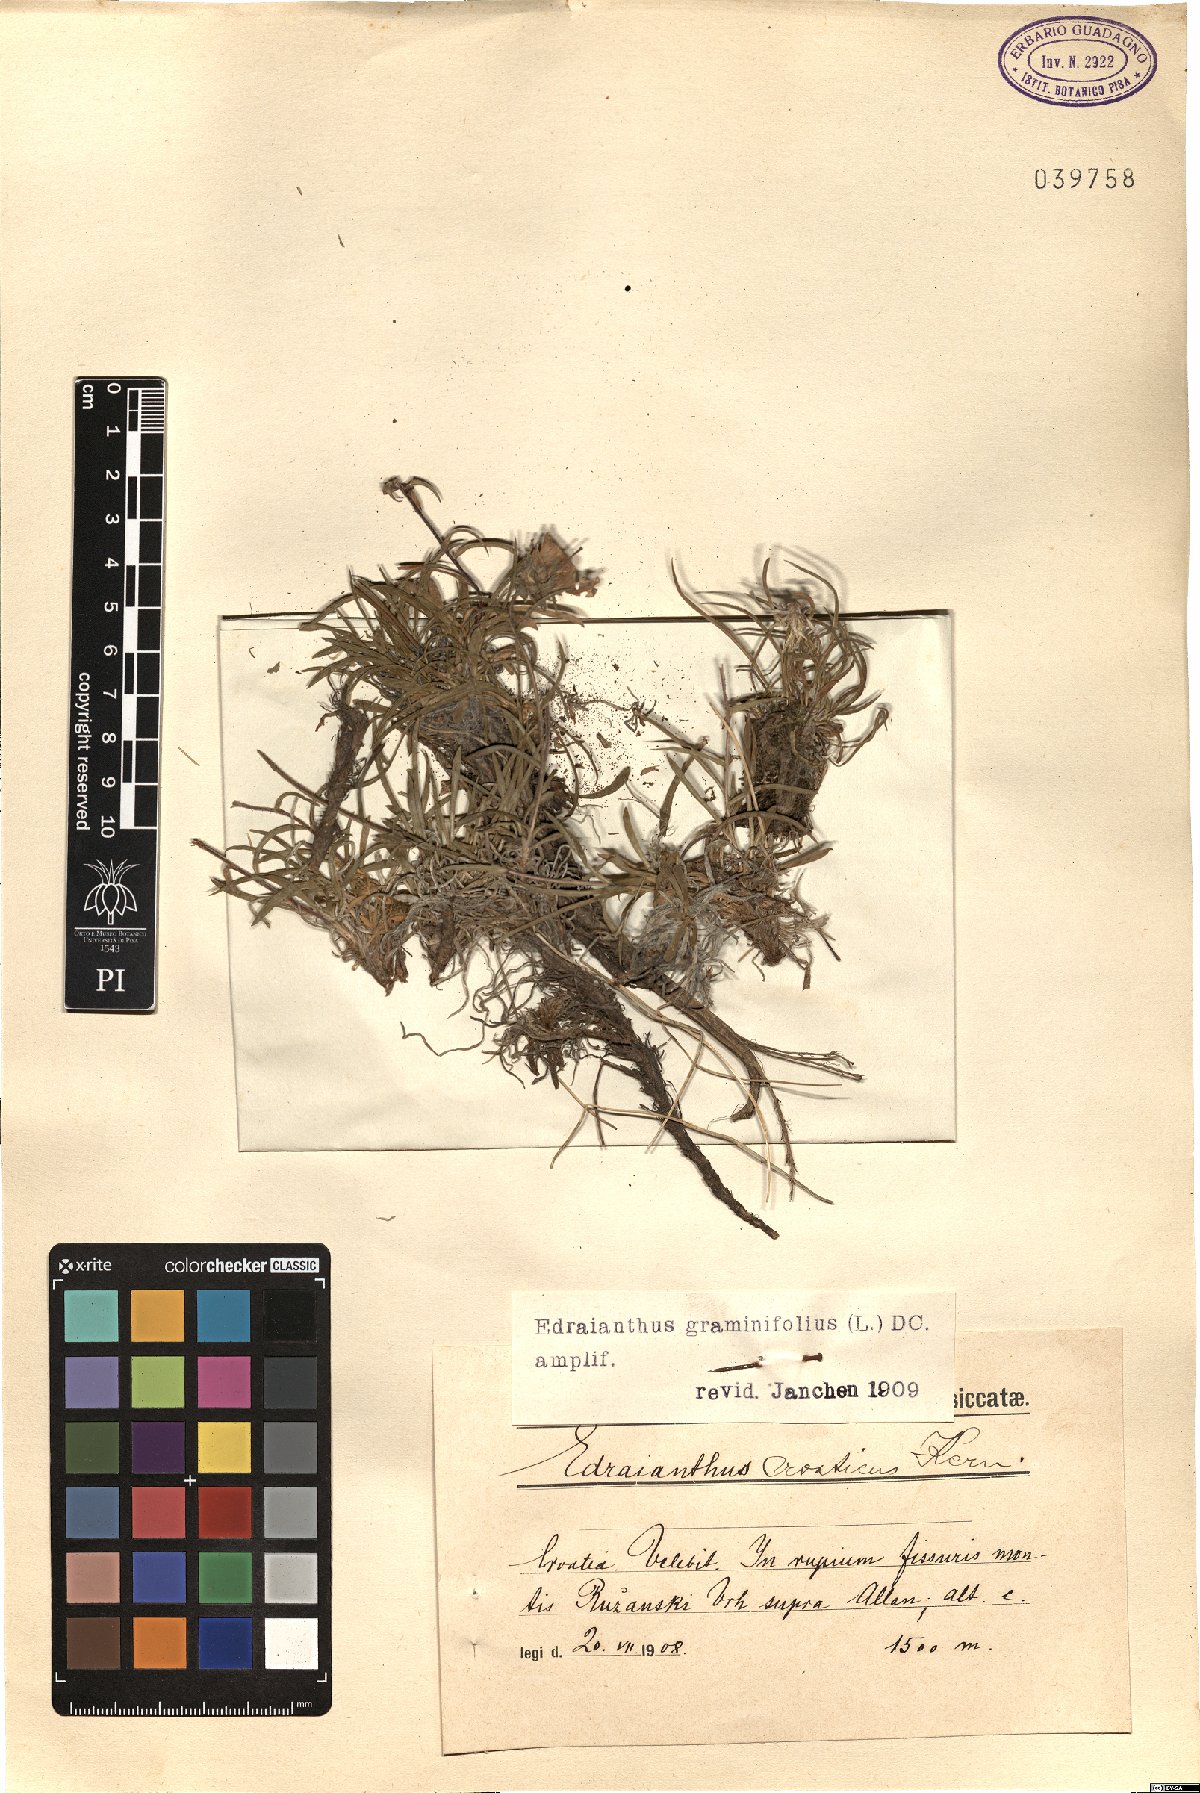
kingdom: Plantae
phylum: Tracheophyta
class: Magnoliopsida
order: Asterales
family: Campanulaceae
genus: Edraianthus
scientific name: Edraianthus graminifolius
